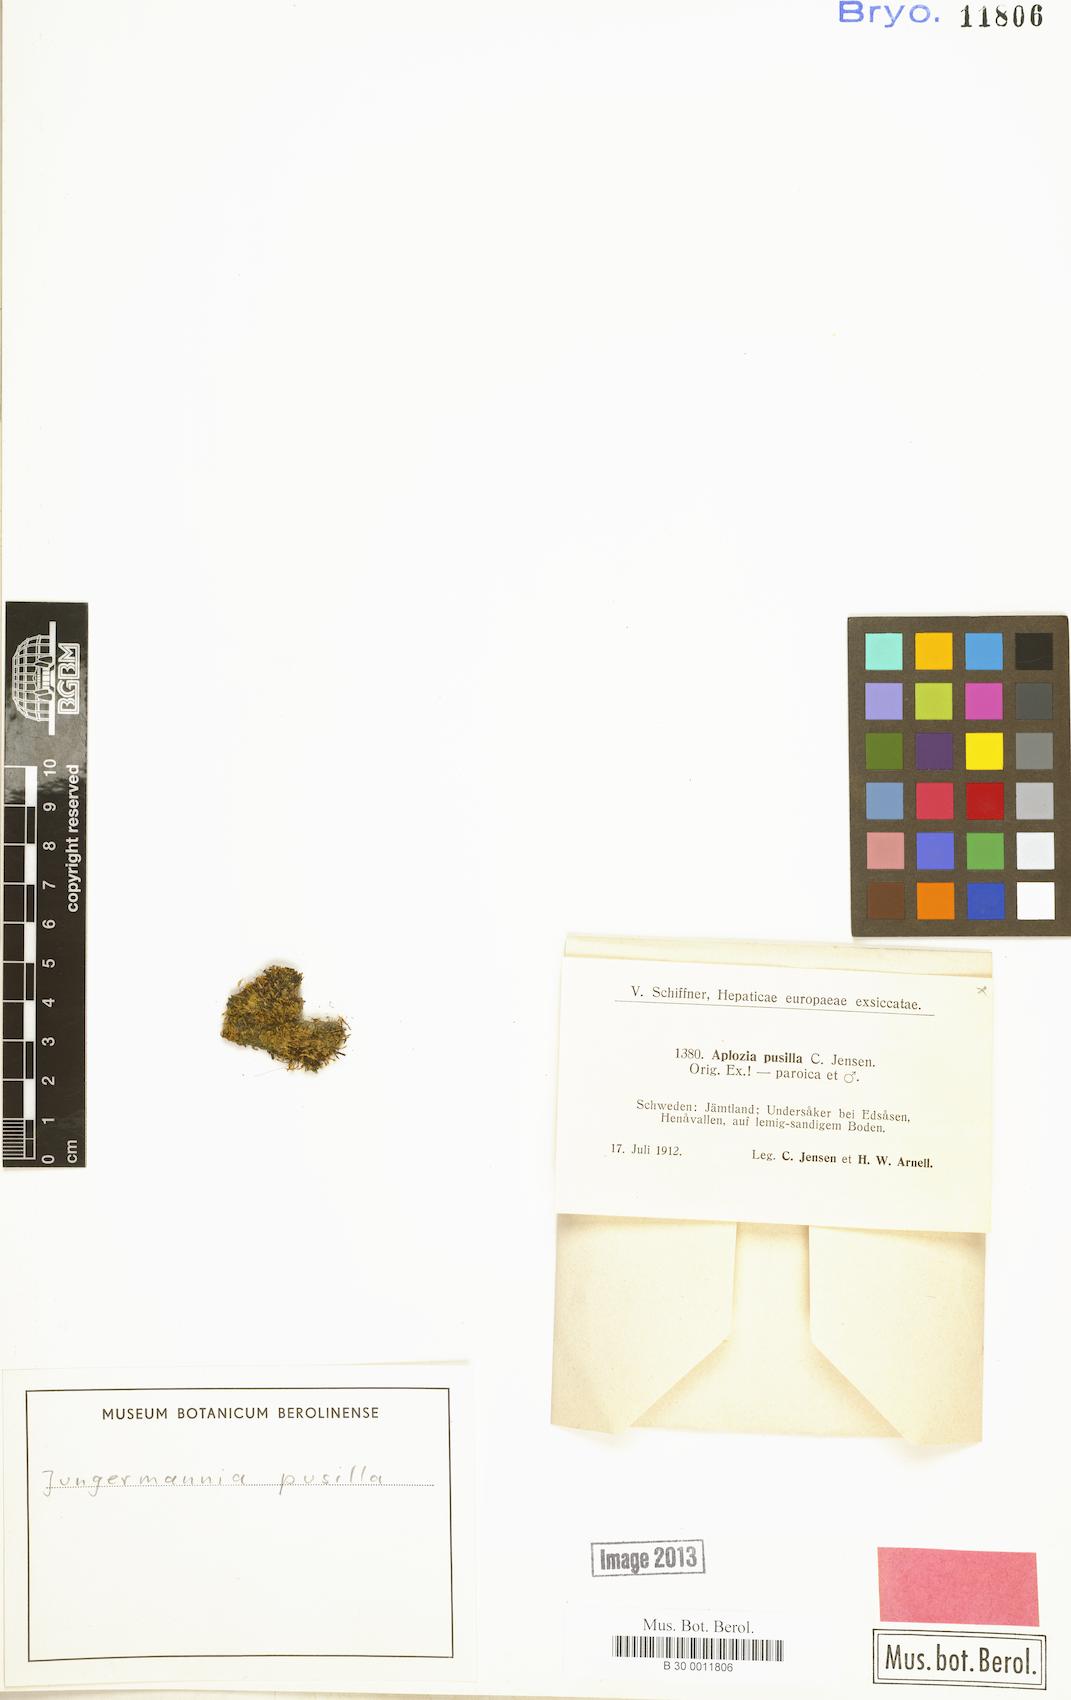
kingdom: Plantae
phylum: Marchantiophyta
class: Jungermanniopsida
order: Jungermanniales
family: Jungermanniaceae
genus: Jungermannia
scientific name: Jungermannia pumila
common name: Dwarf flapwort
